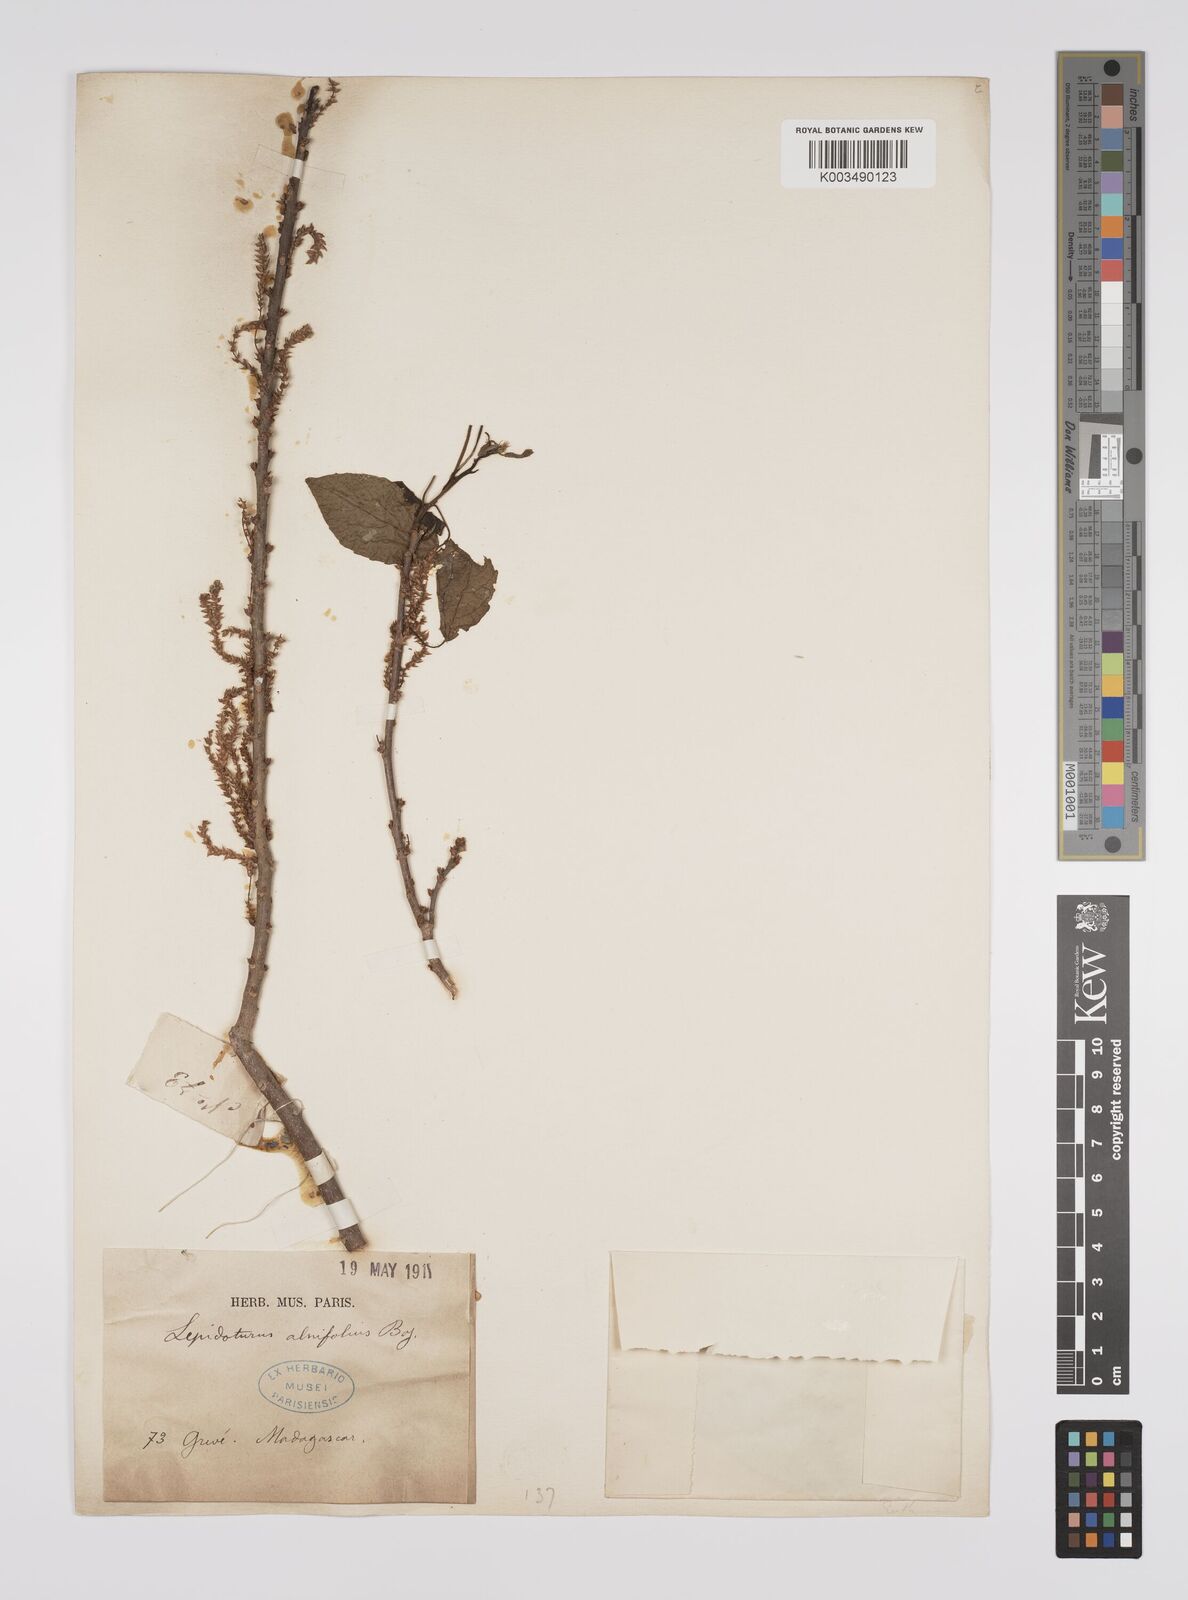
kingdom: Plantae
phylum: Tracheophyta
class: Magnoliopsida
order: Malpighiales
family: Euphorbiaceae
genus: Alchornea
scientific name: Alchornea alnifolia
